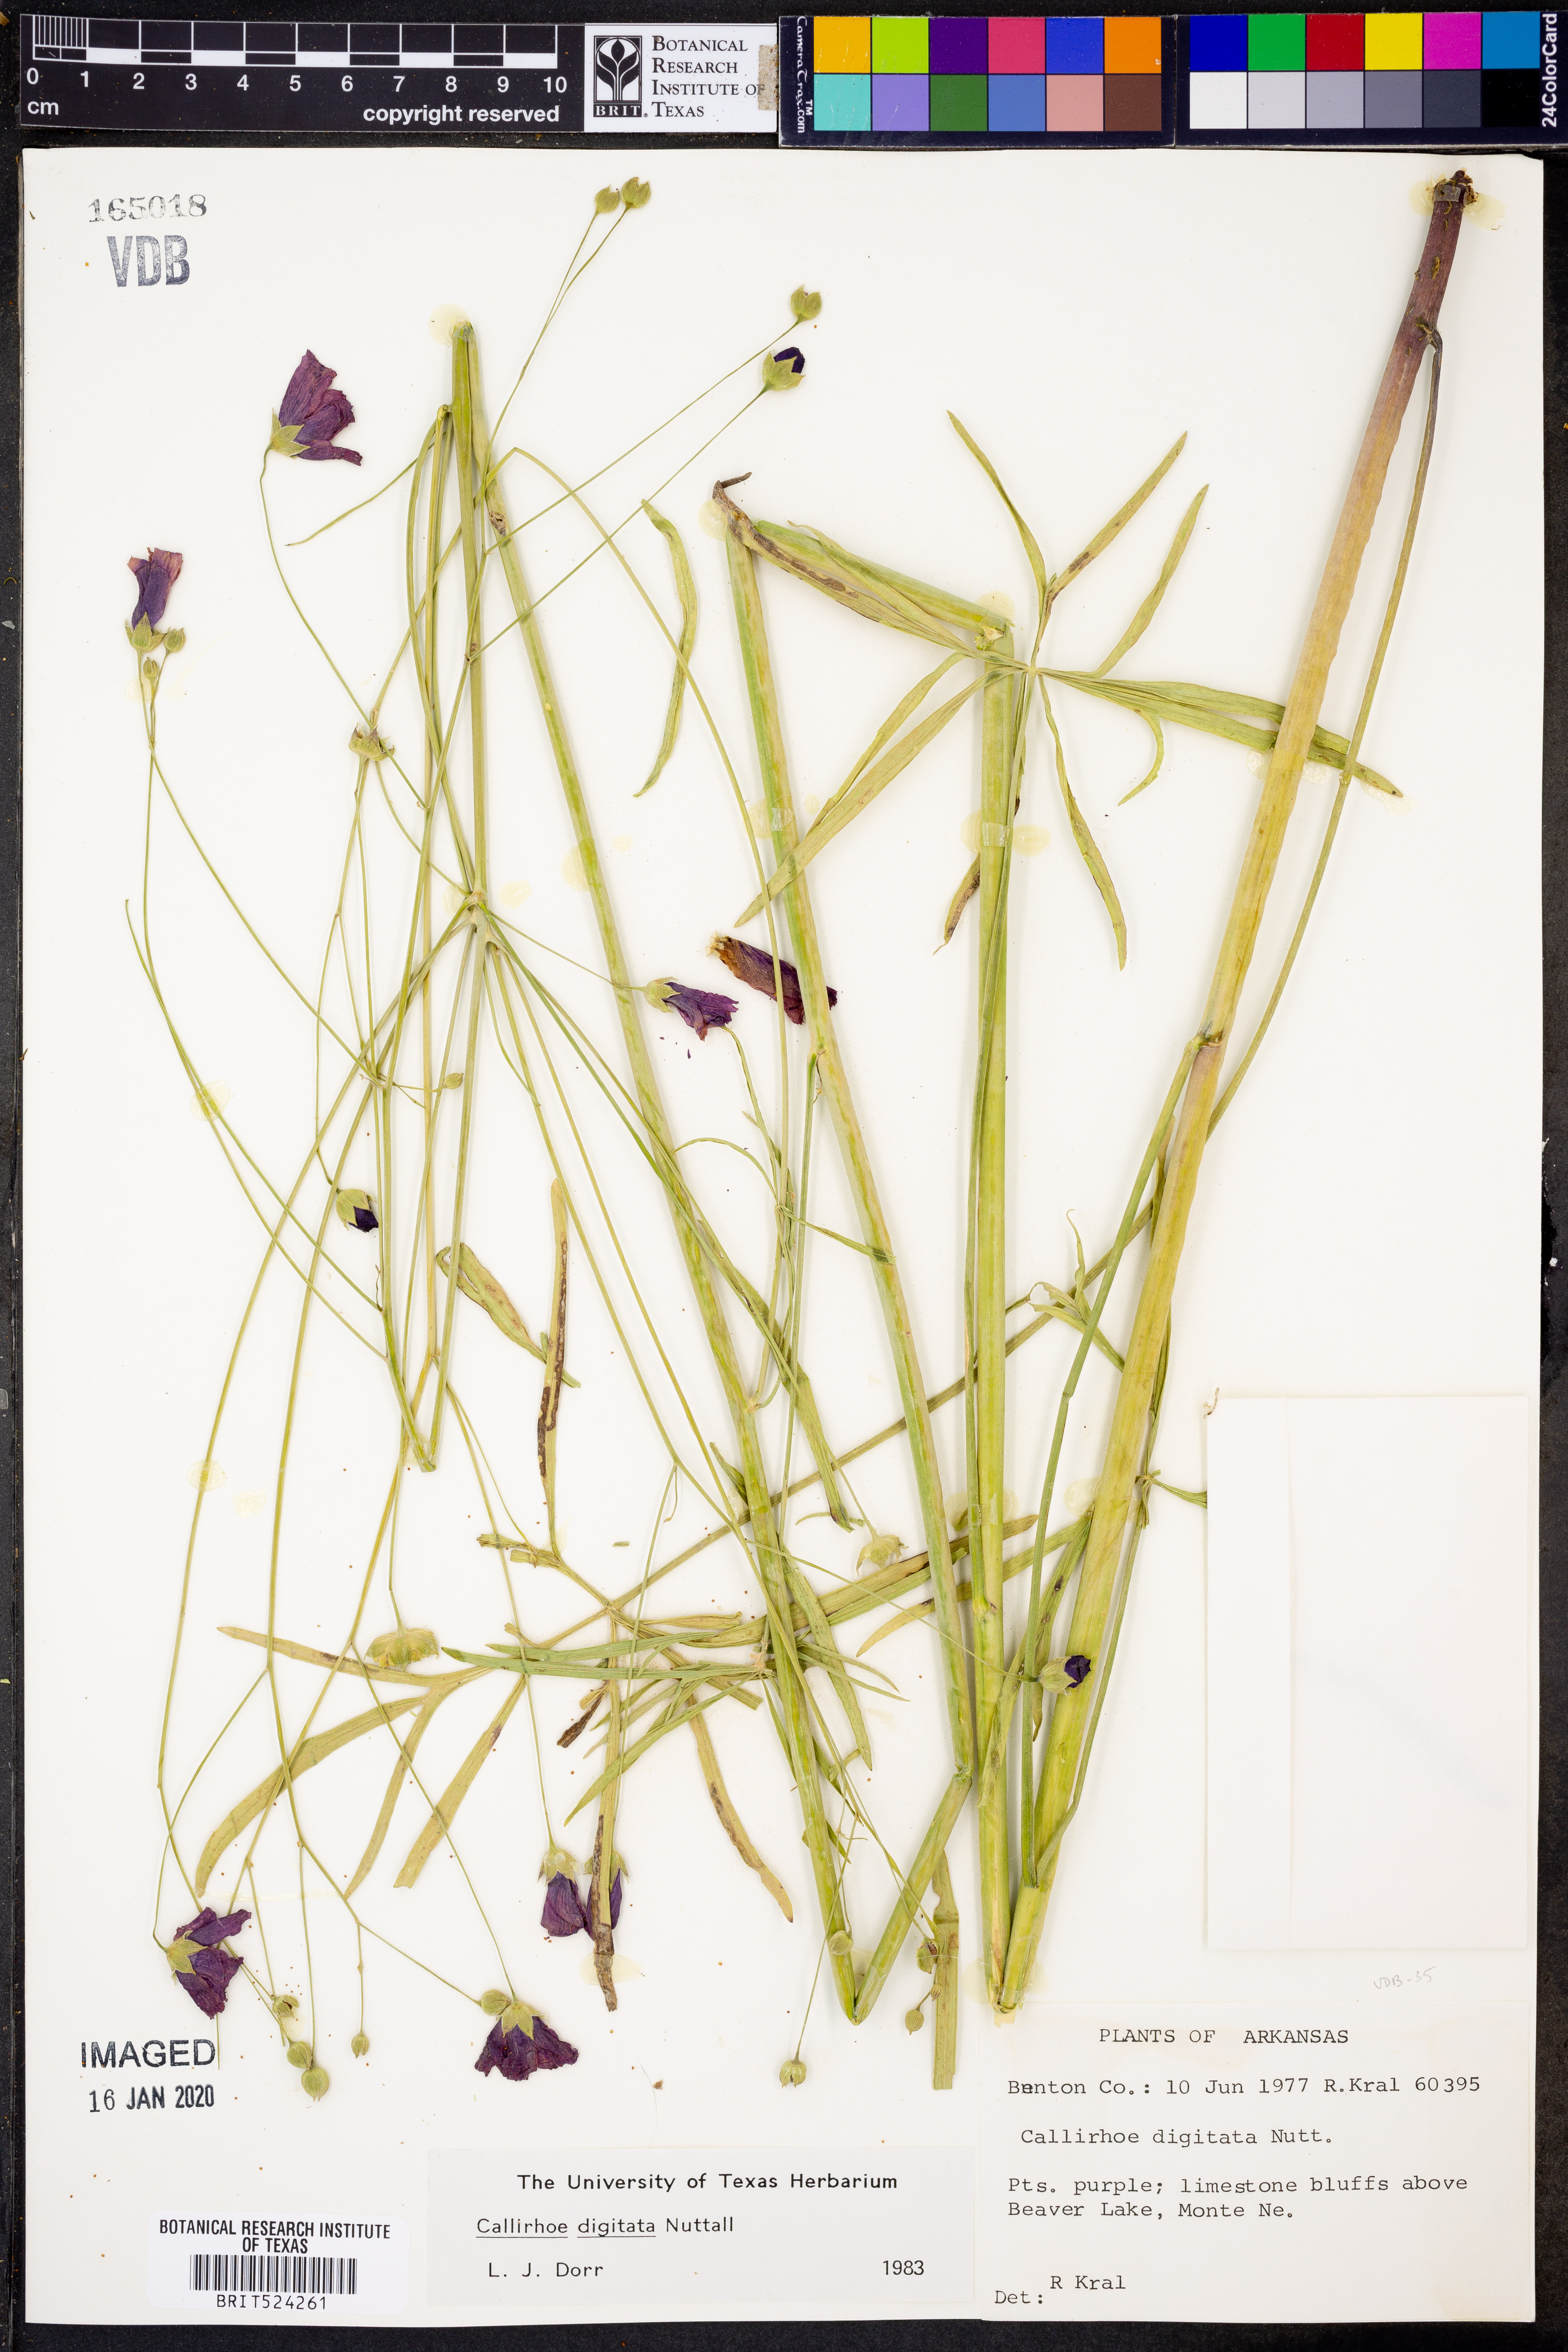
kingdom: Plantae
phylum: Tracheophyta
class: Magnoliopsida
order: Malvales
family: Malvaceae
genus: Callirhoe
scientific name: Callirhoe digitata
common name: Finger poppy-mallow
